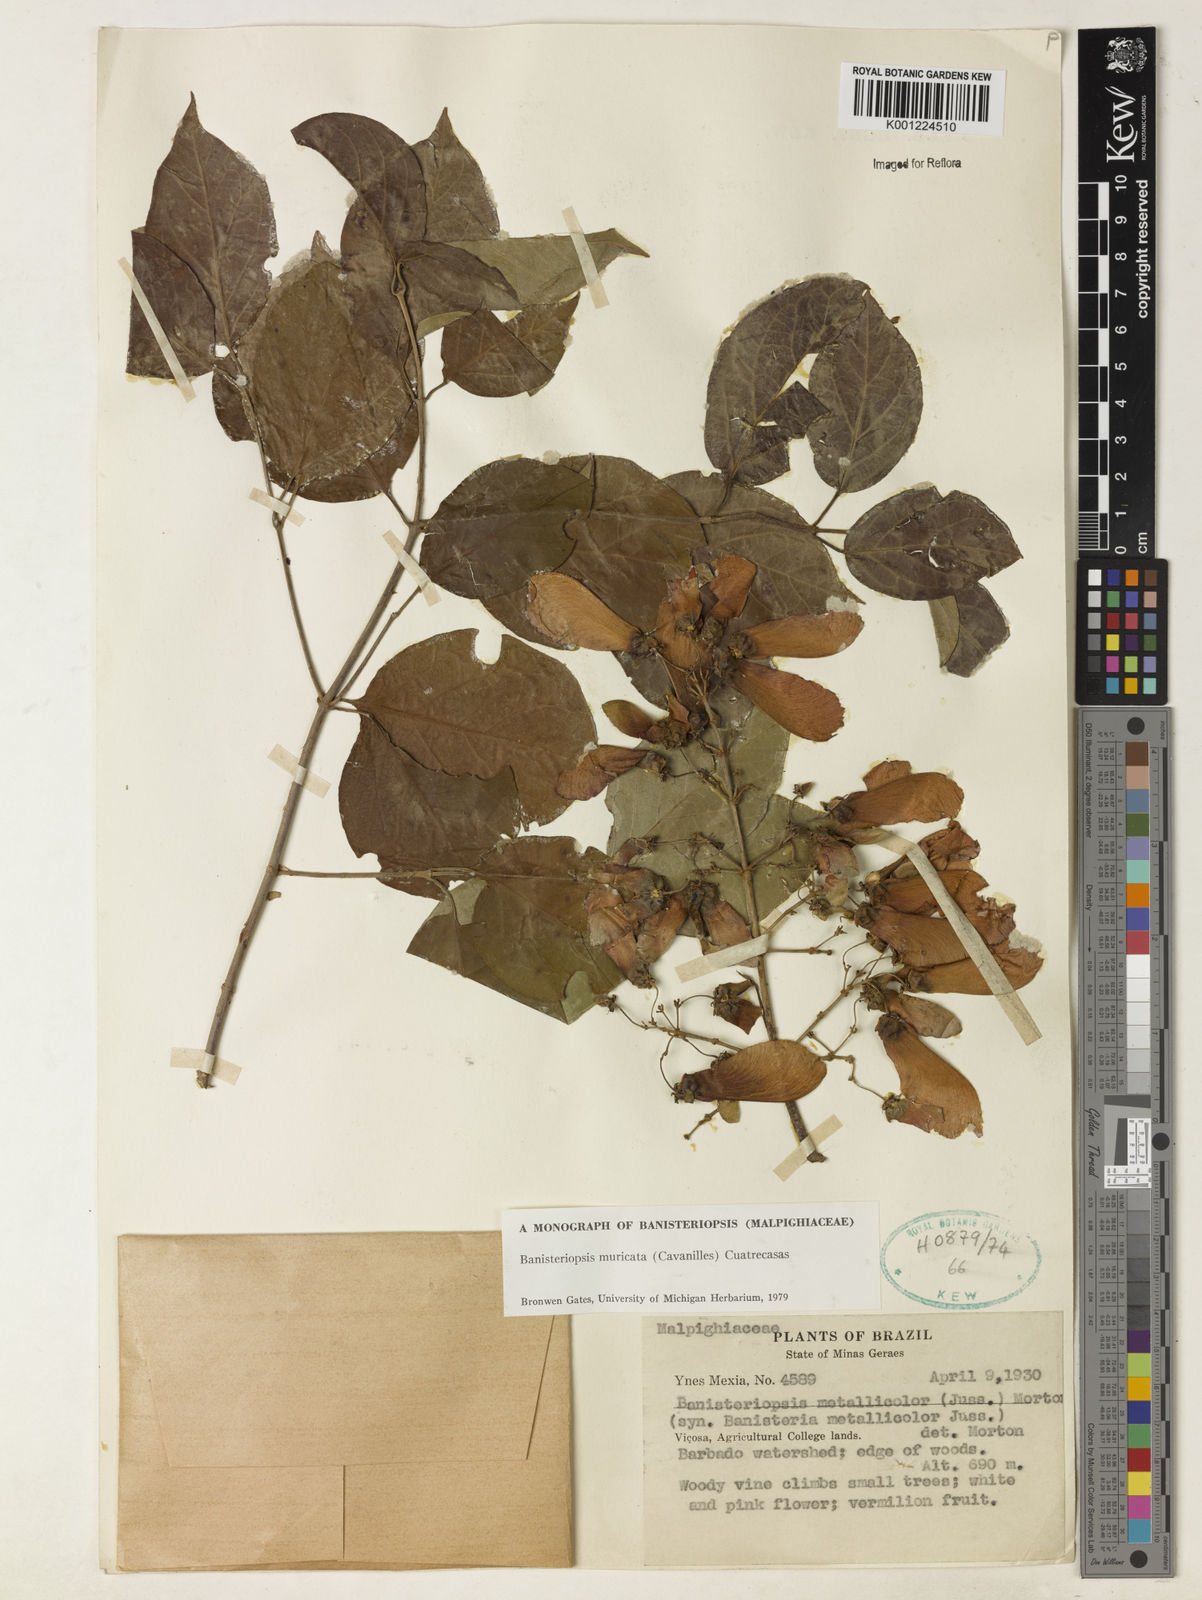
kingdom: Plantae
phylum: Tracheophyta
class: Magnoliopsida
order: Malpighiales
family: Malpighiaceae
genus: Banisteriopsis
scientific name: Banisteriopsis muricata
